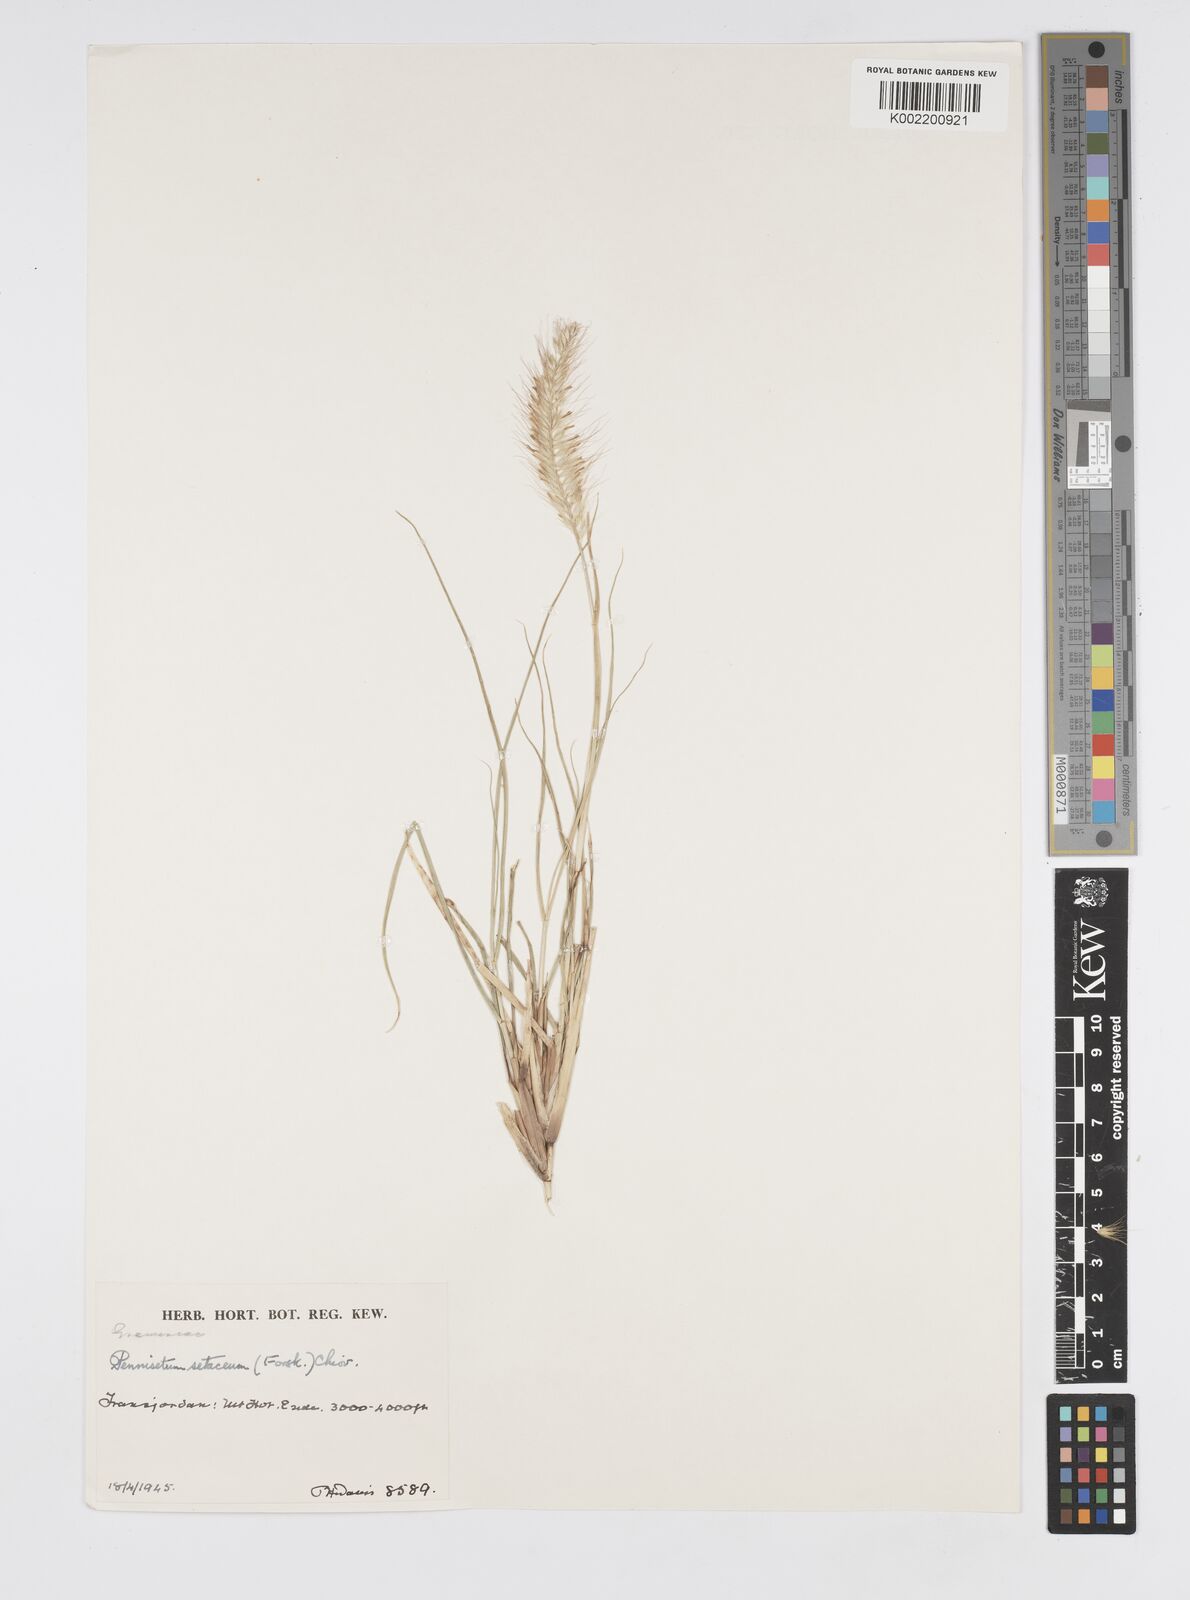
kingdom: Plantae
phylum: Tracheophyta
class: Liliopsida
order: Poales
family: Poaceae
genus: Cenchrus
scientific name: Cenchrus setaceus
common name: Crimson fountaingrass
